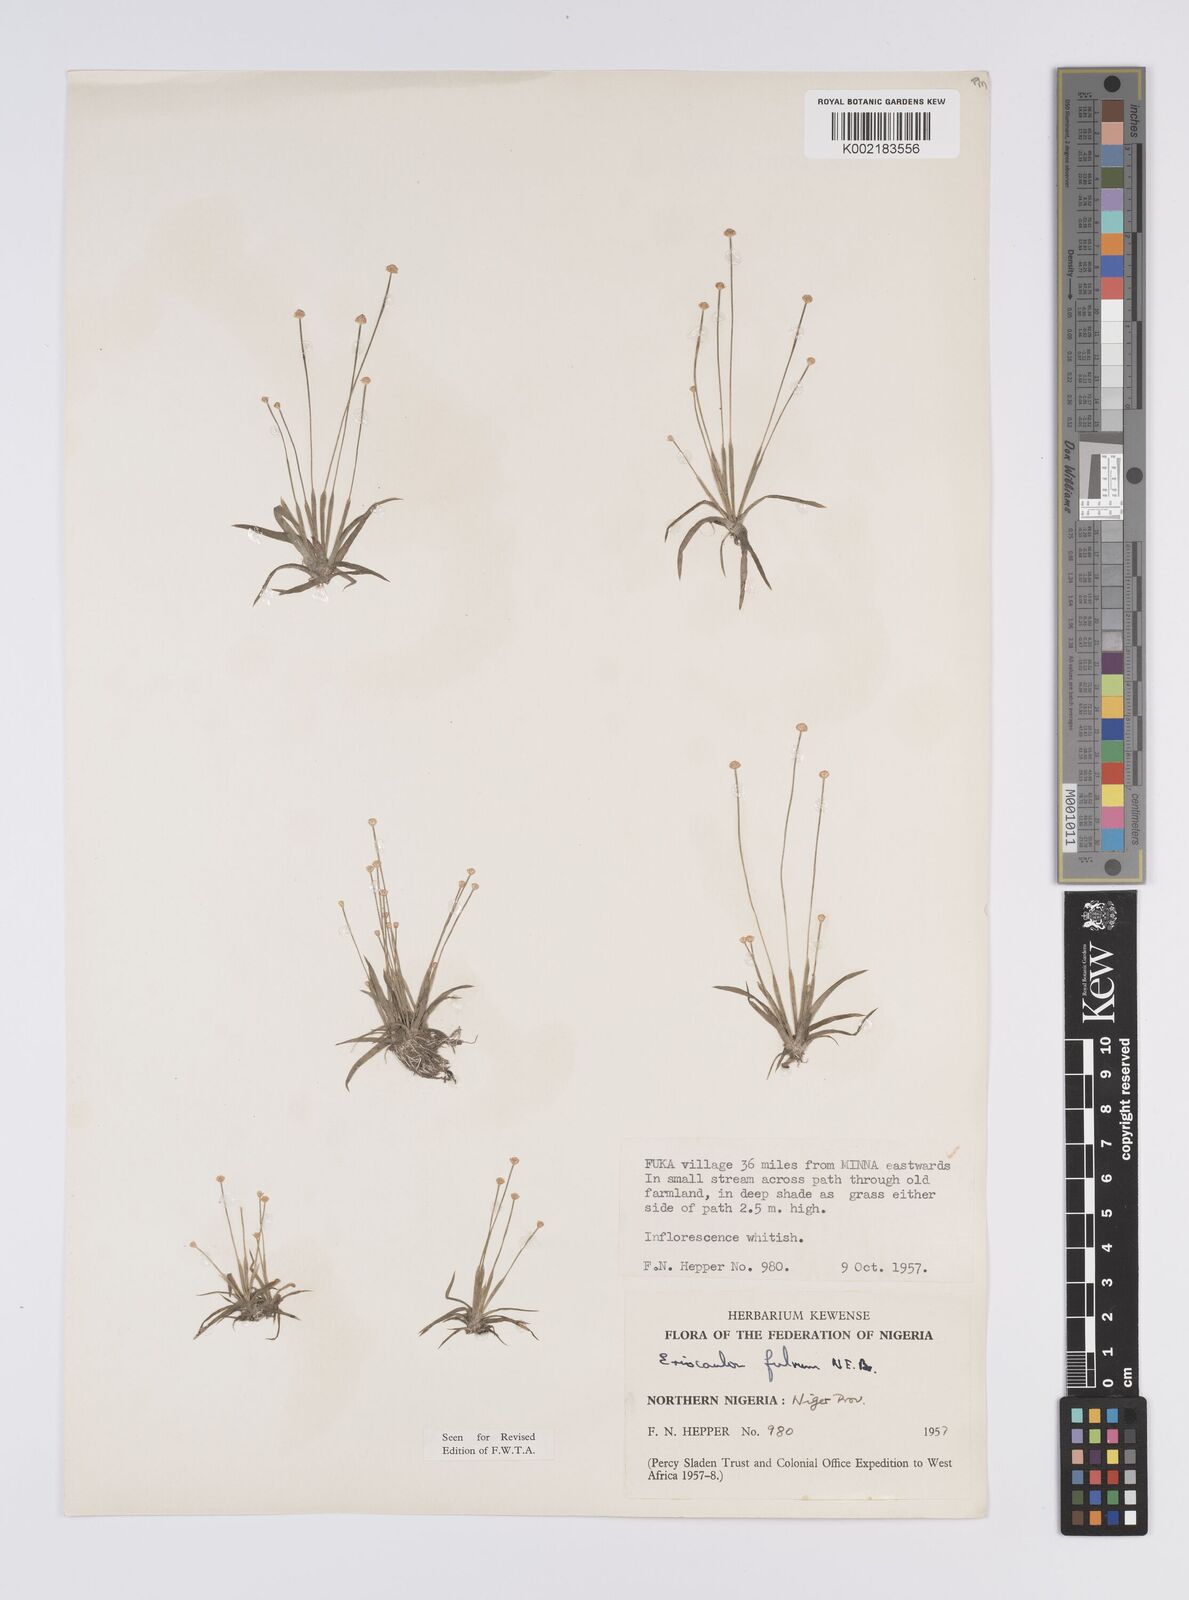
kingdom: Plantae
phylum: Tracheophyta
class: Liliopsida
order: Poales
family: Eriocaulaceae
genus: Eriocaulon
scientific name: Eriocaulon fulvum
